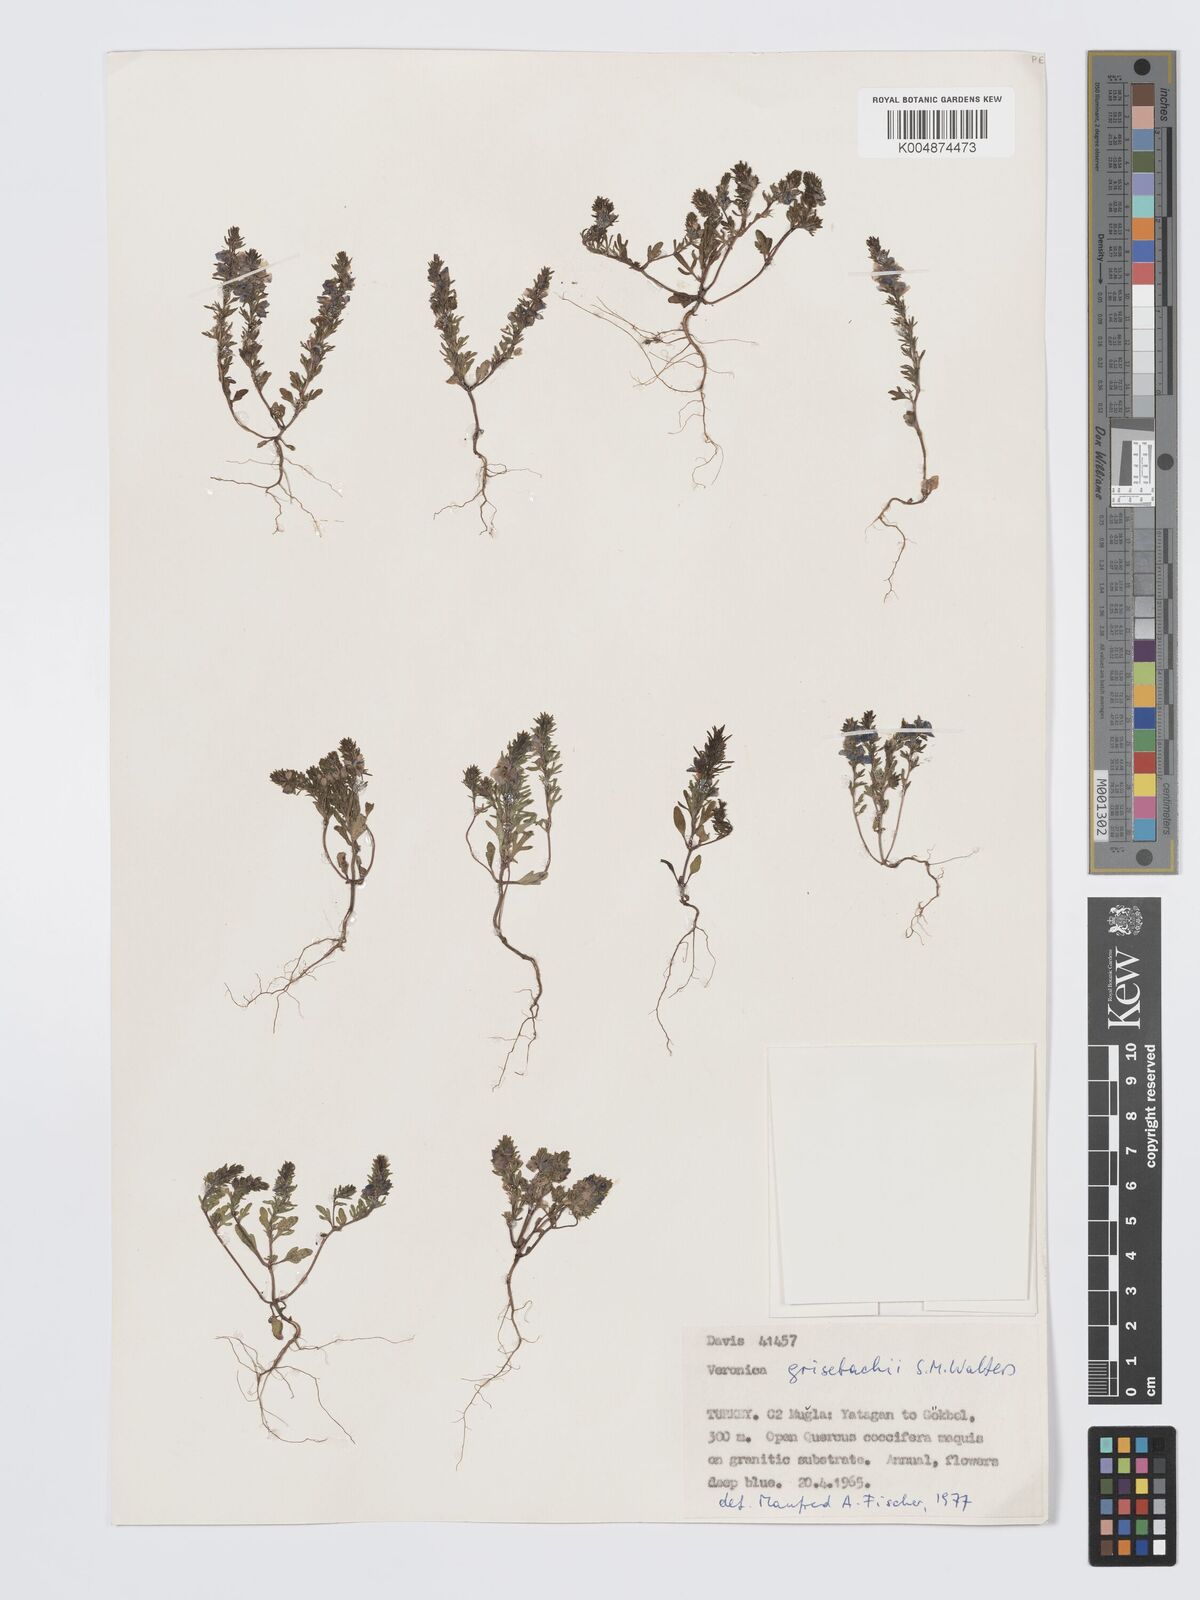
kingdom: Plantae
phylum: Tracheophyta
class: Magnoliopsida
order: Lamiales
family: Plantaginaceae
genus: Veronica
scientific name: Veronica grisebachii
